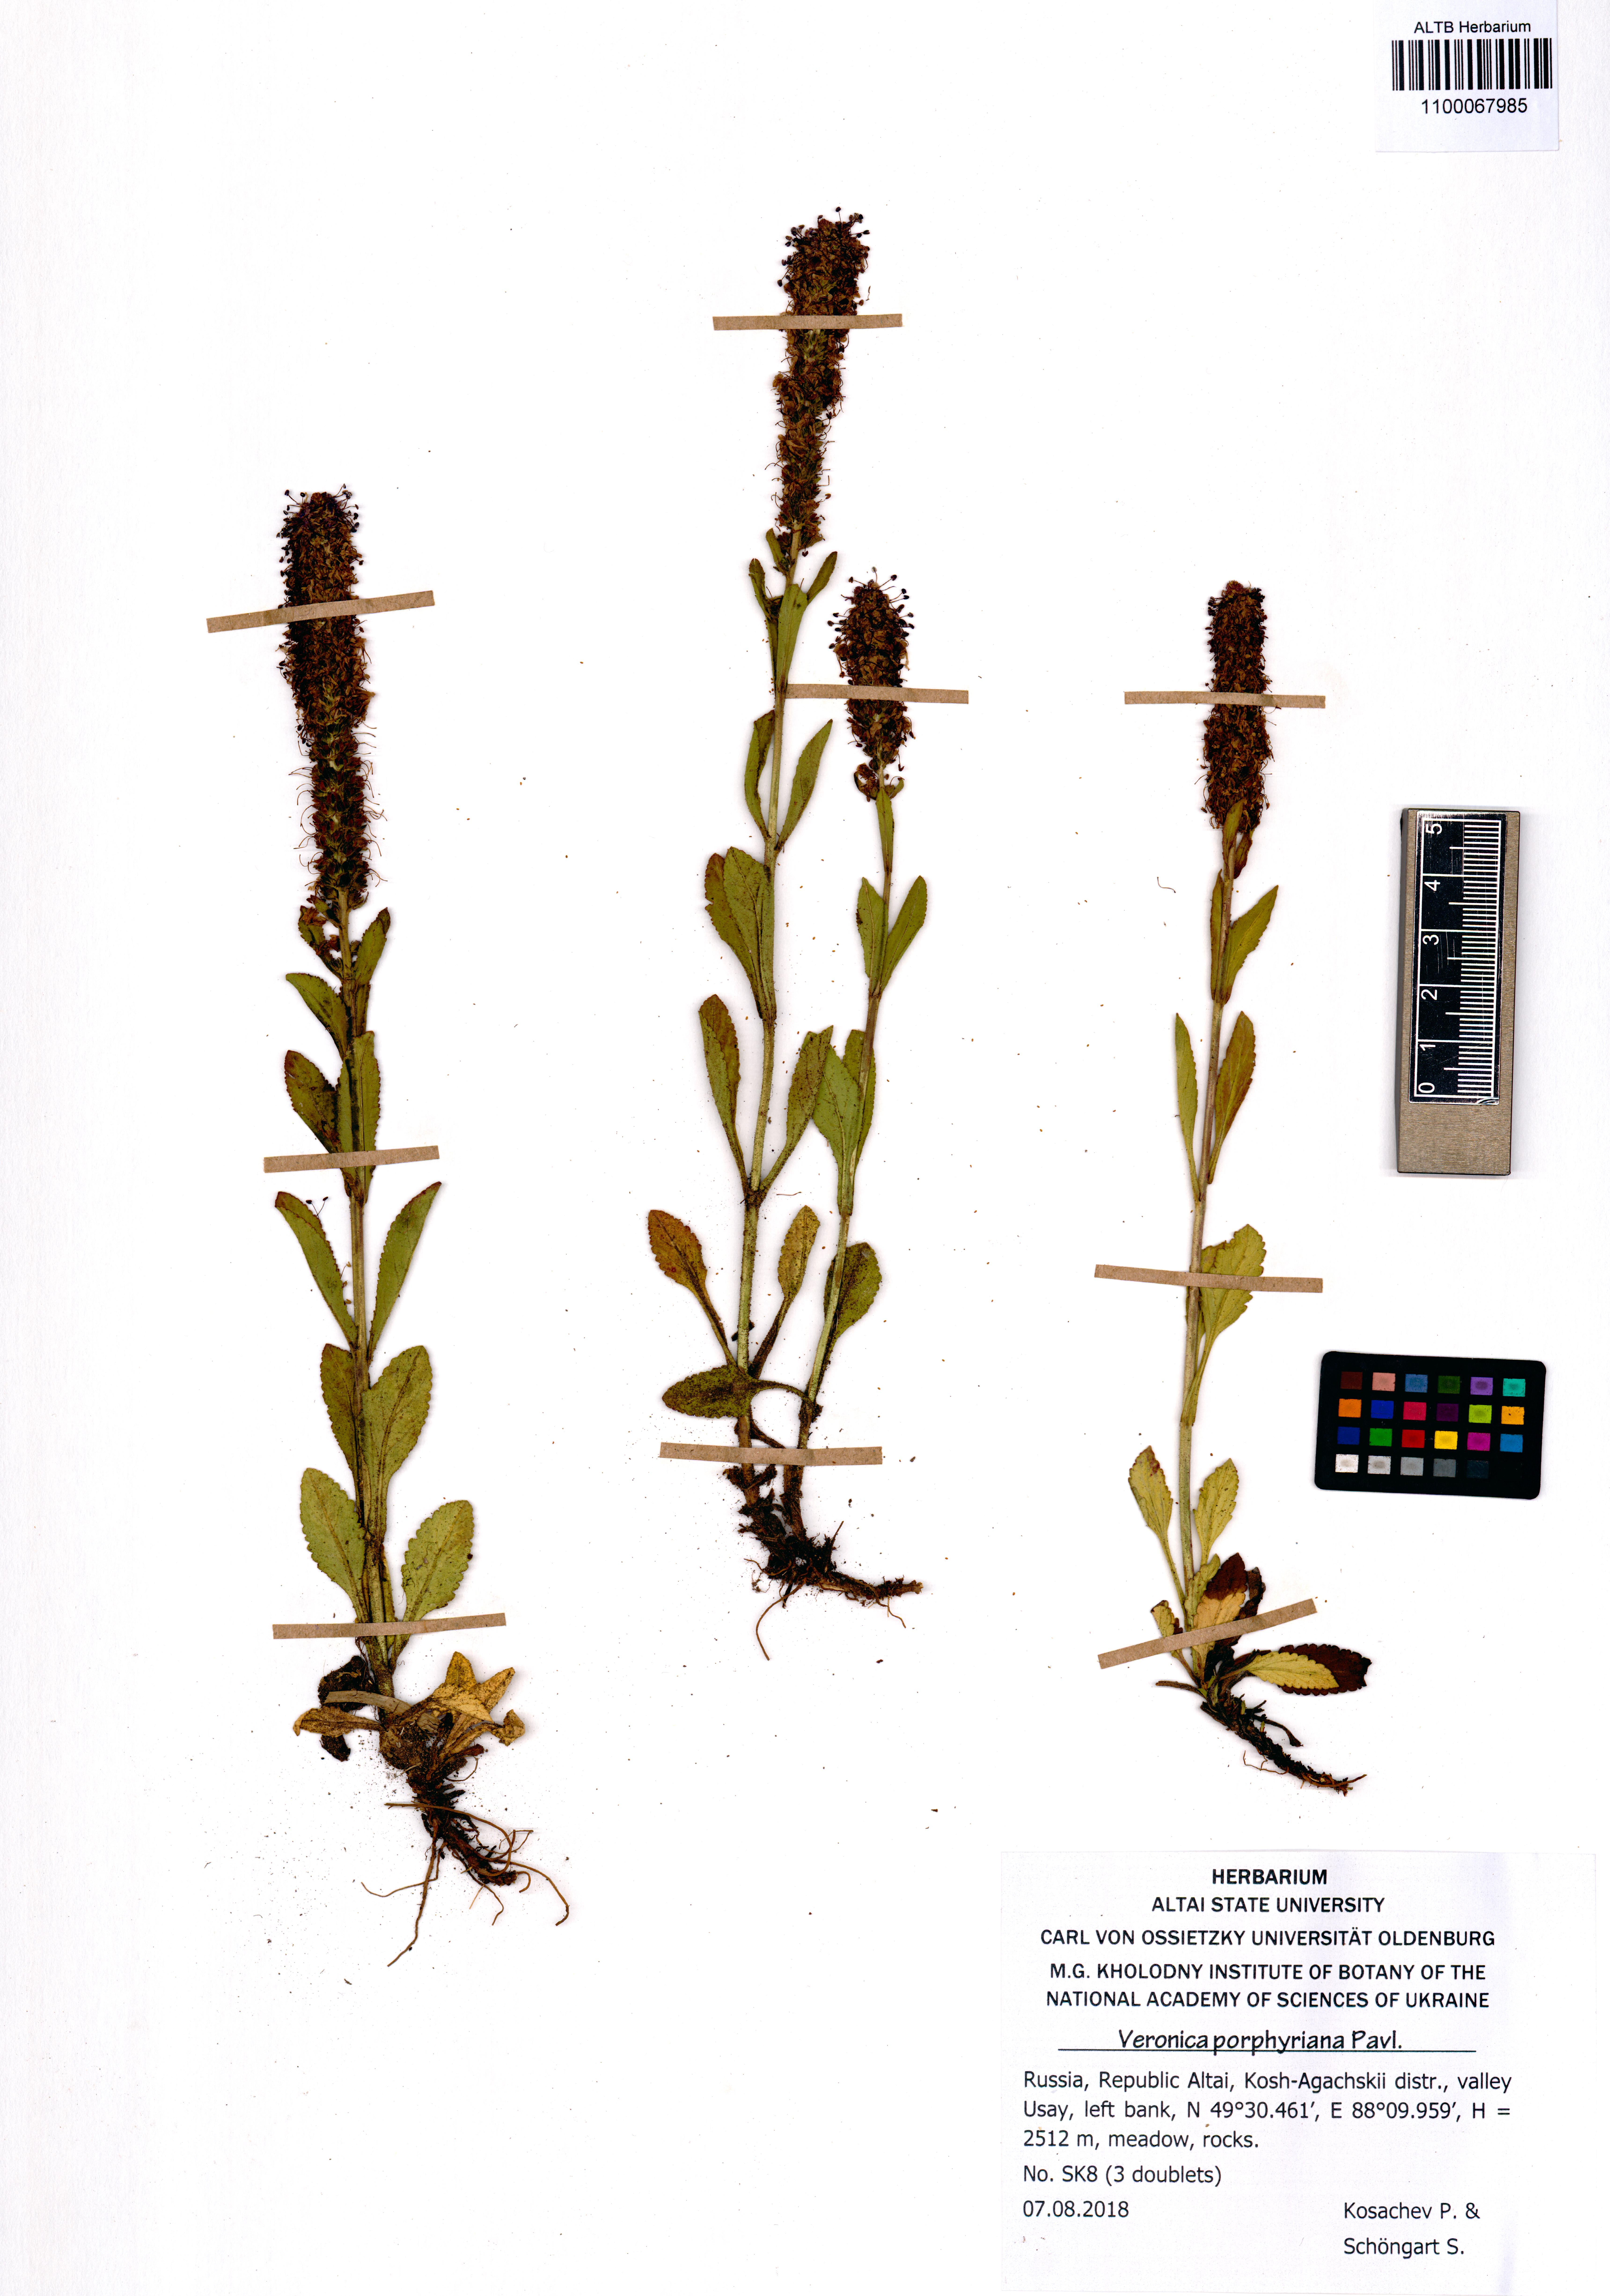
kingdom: Plantae
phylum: Tracheophyta
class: Magnoliopsida
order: Lamiales
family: Plantaginaceae
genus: Veronica
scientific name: Veronica porphyriana
